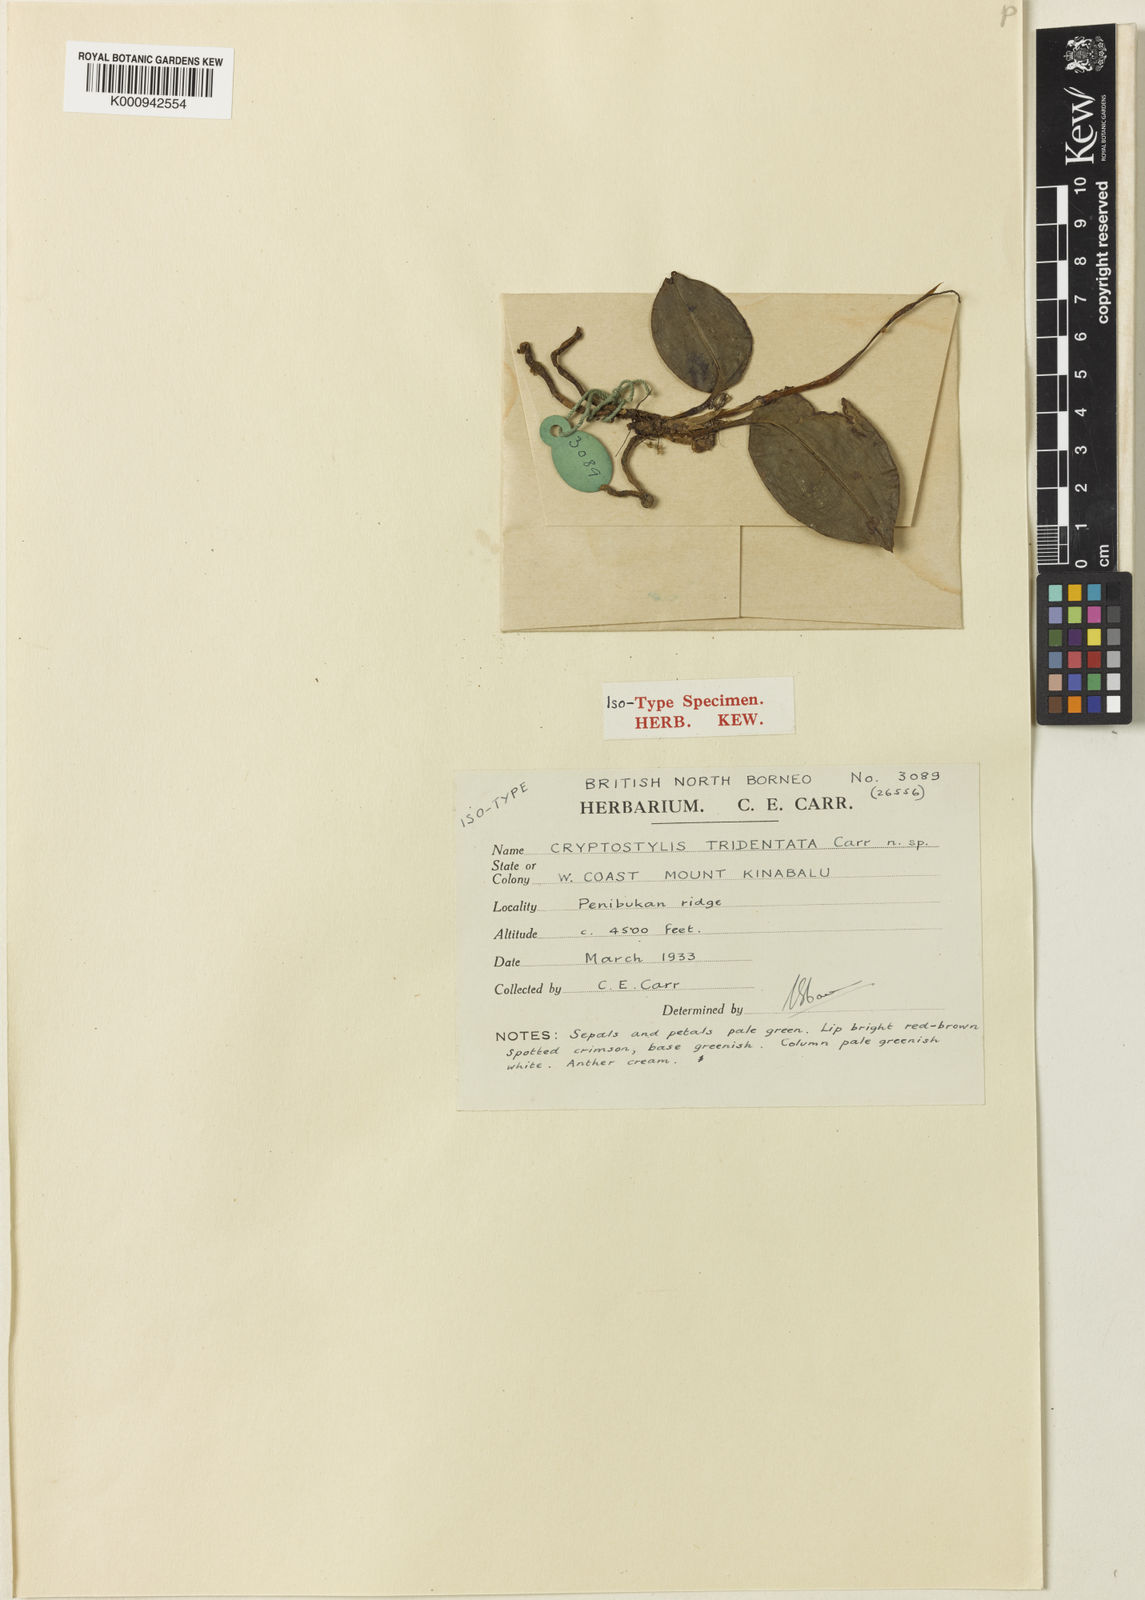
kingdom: Plantae
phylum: Tracheophyta
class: Liliopsida
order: Asparagales
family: Orchidaceae
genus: Cryptostylis
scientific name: Cryptostylis clemensii
